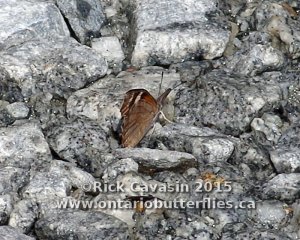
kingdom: Animalia
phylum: Arthropoda
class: Insecta
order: Lepidoptera
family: Nymphalidae
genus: Libytheana
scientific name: Libytheana carinenta
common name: American Snout
